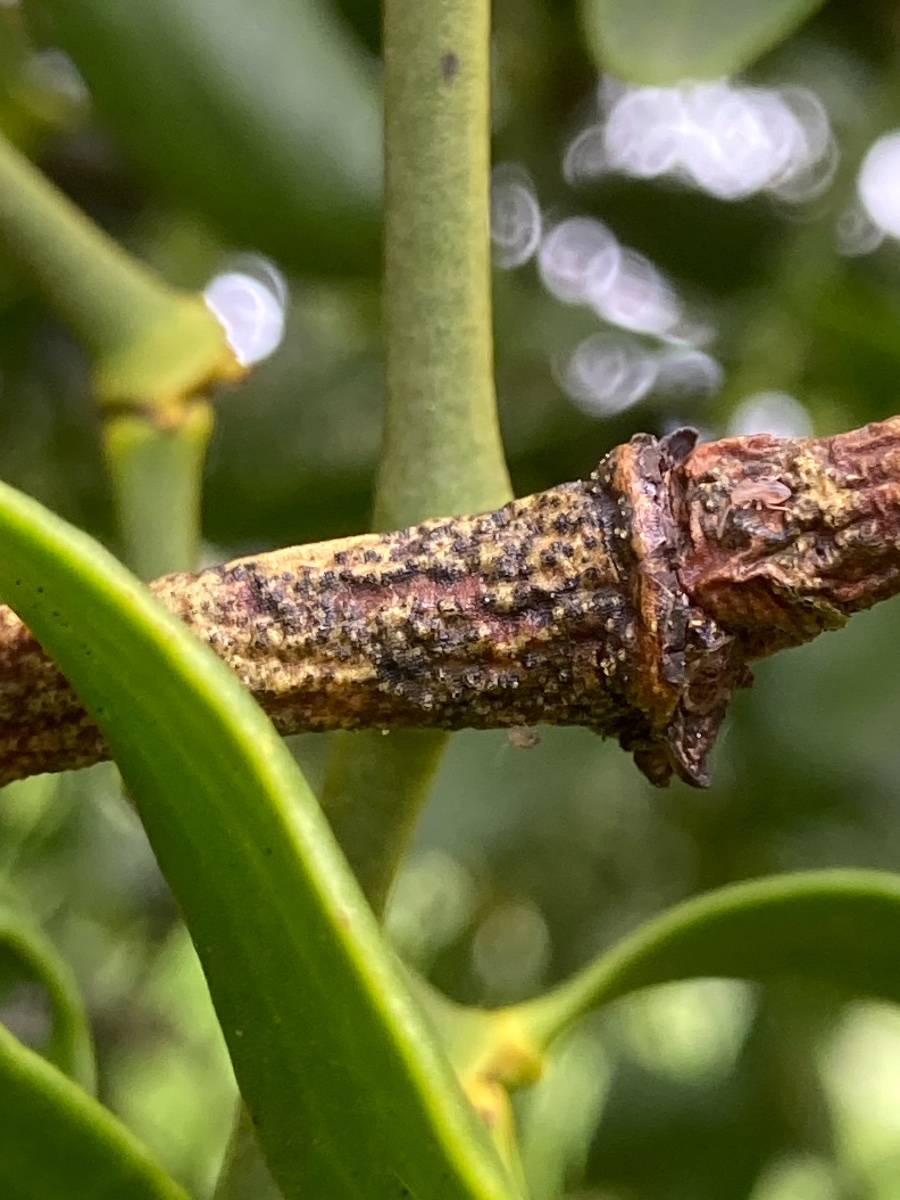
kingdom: Fungi
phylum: Ascomycota
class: Dothideomycetes
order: Botryosphaeriales
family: Botryosphaeriaceae
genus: Botryosphaeria
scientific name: Botryosphaeria visci
